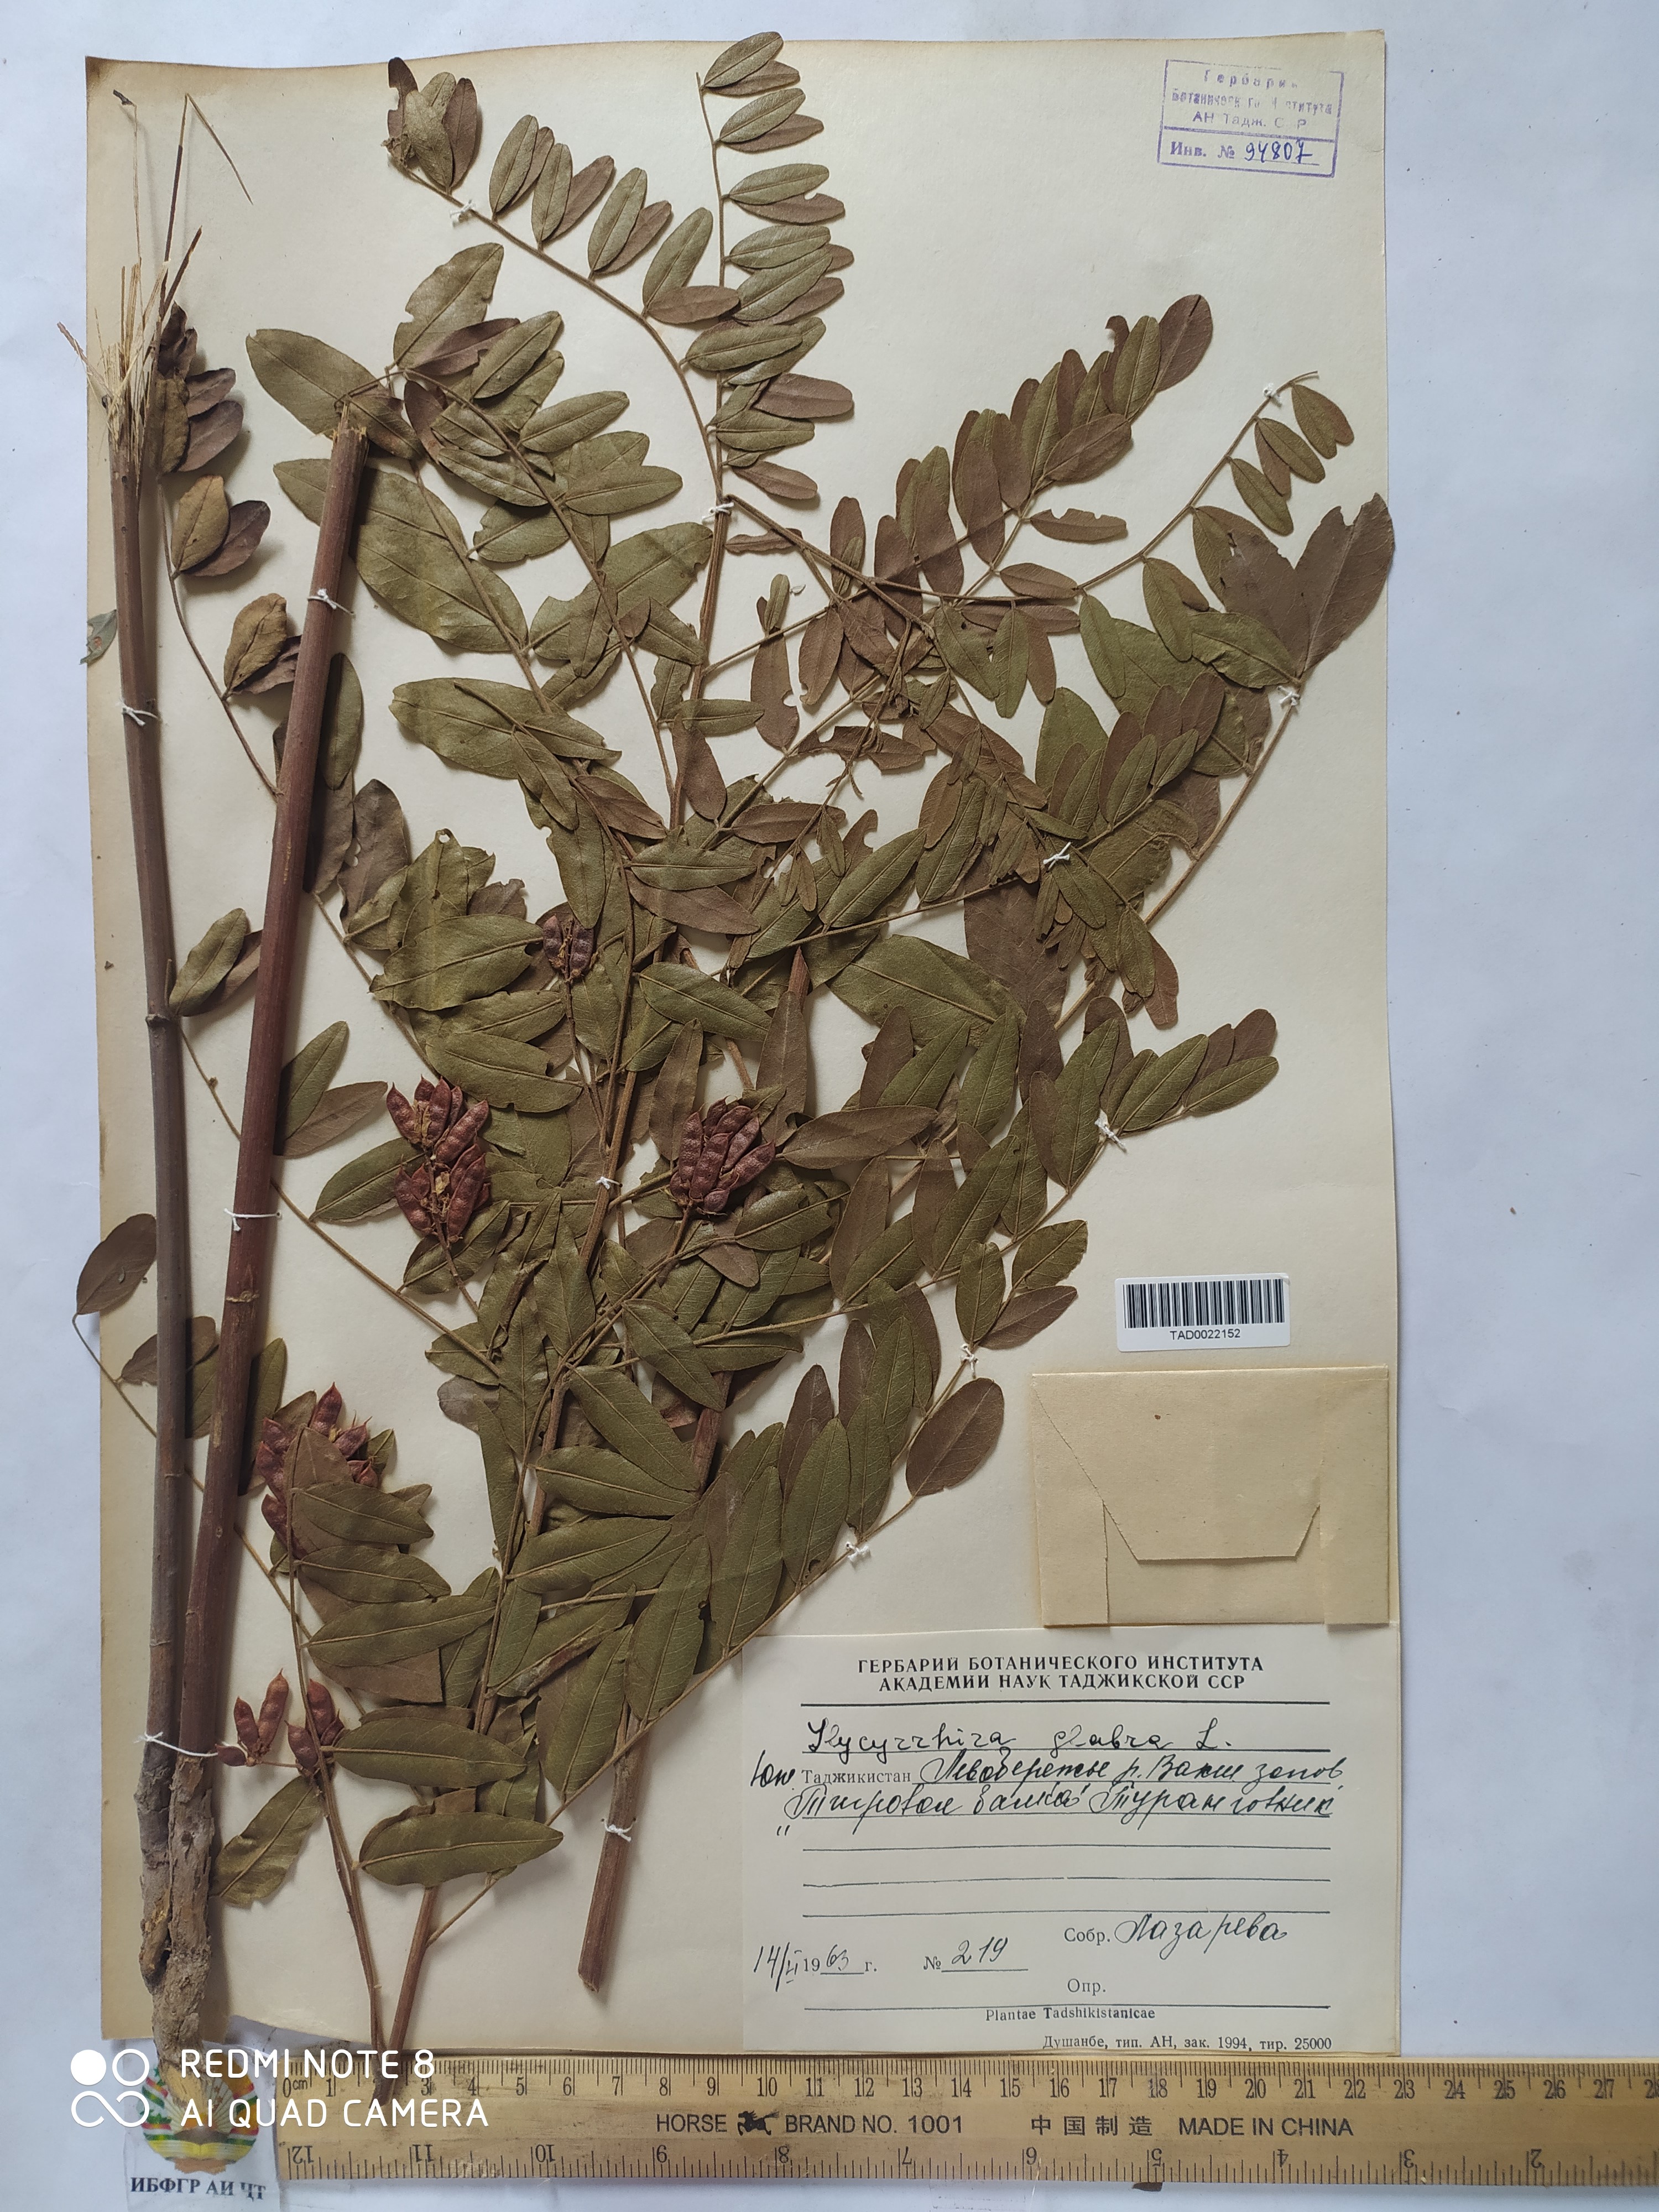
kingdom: Plantae
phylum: Tracheophyta
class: Magnoliopsida
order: Fabales
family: Fabaceae
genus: Glycyrrhiza
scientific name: Glycyrrhiza glabra
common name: Liquorice
